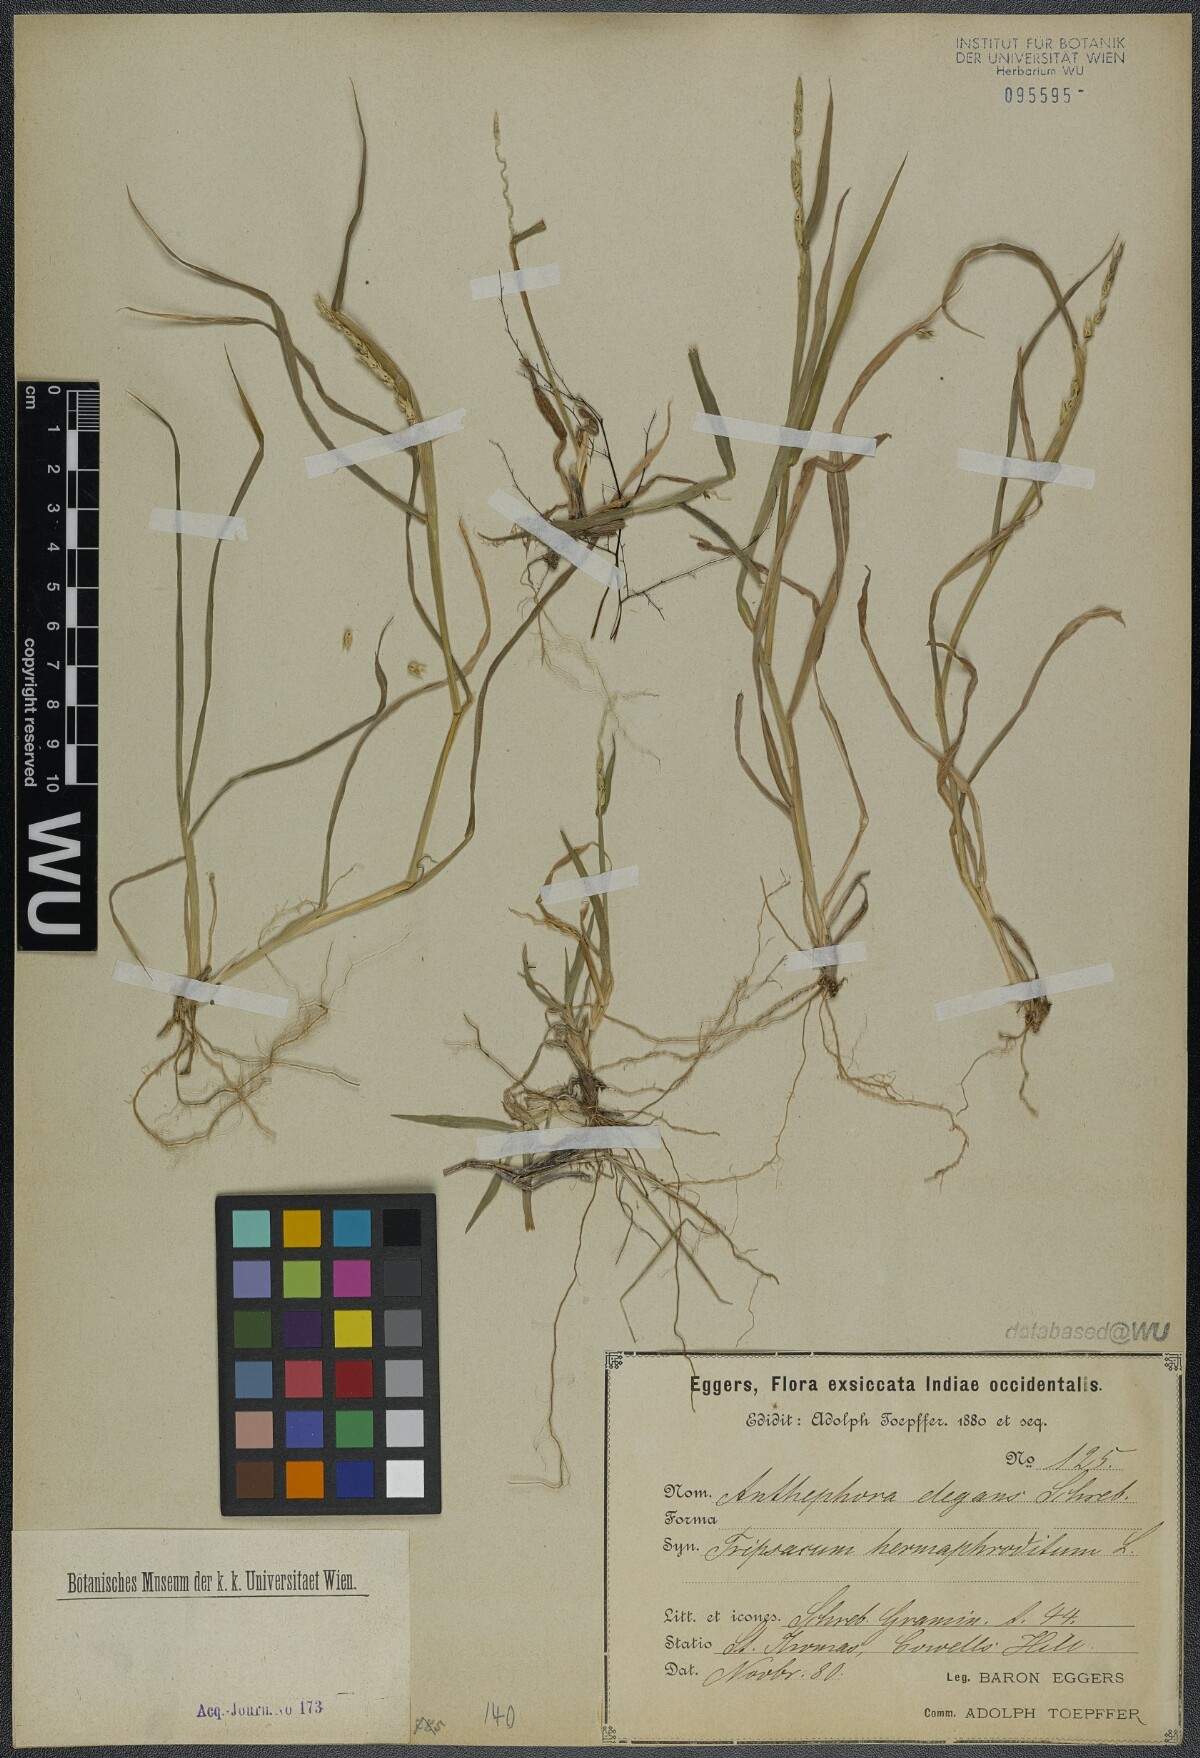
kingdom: Plantae
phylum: Tracheophyta
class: Liliopsida
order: Poales
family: Poaceae
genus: Anthephora
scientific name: Anthephora hermaphrodita
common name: Oldfield grass
